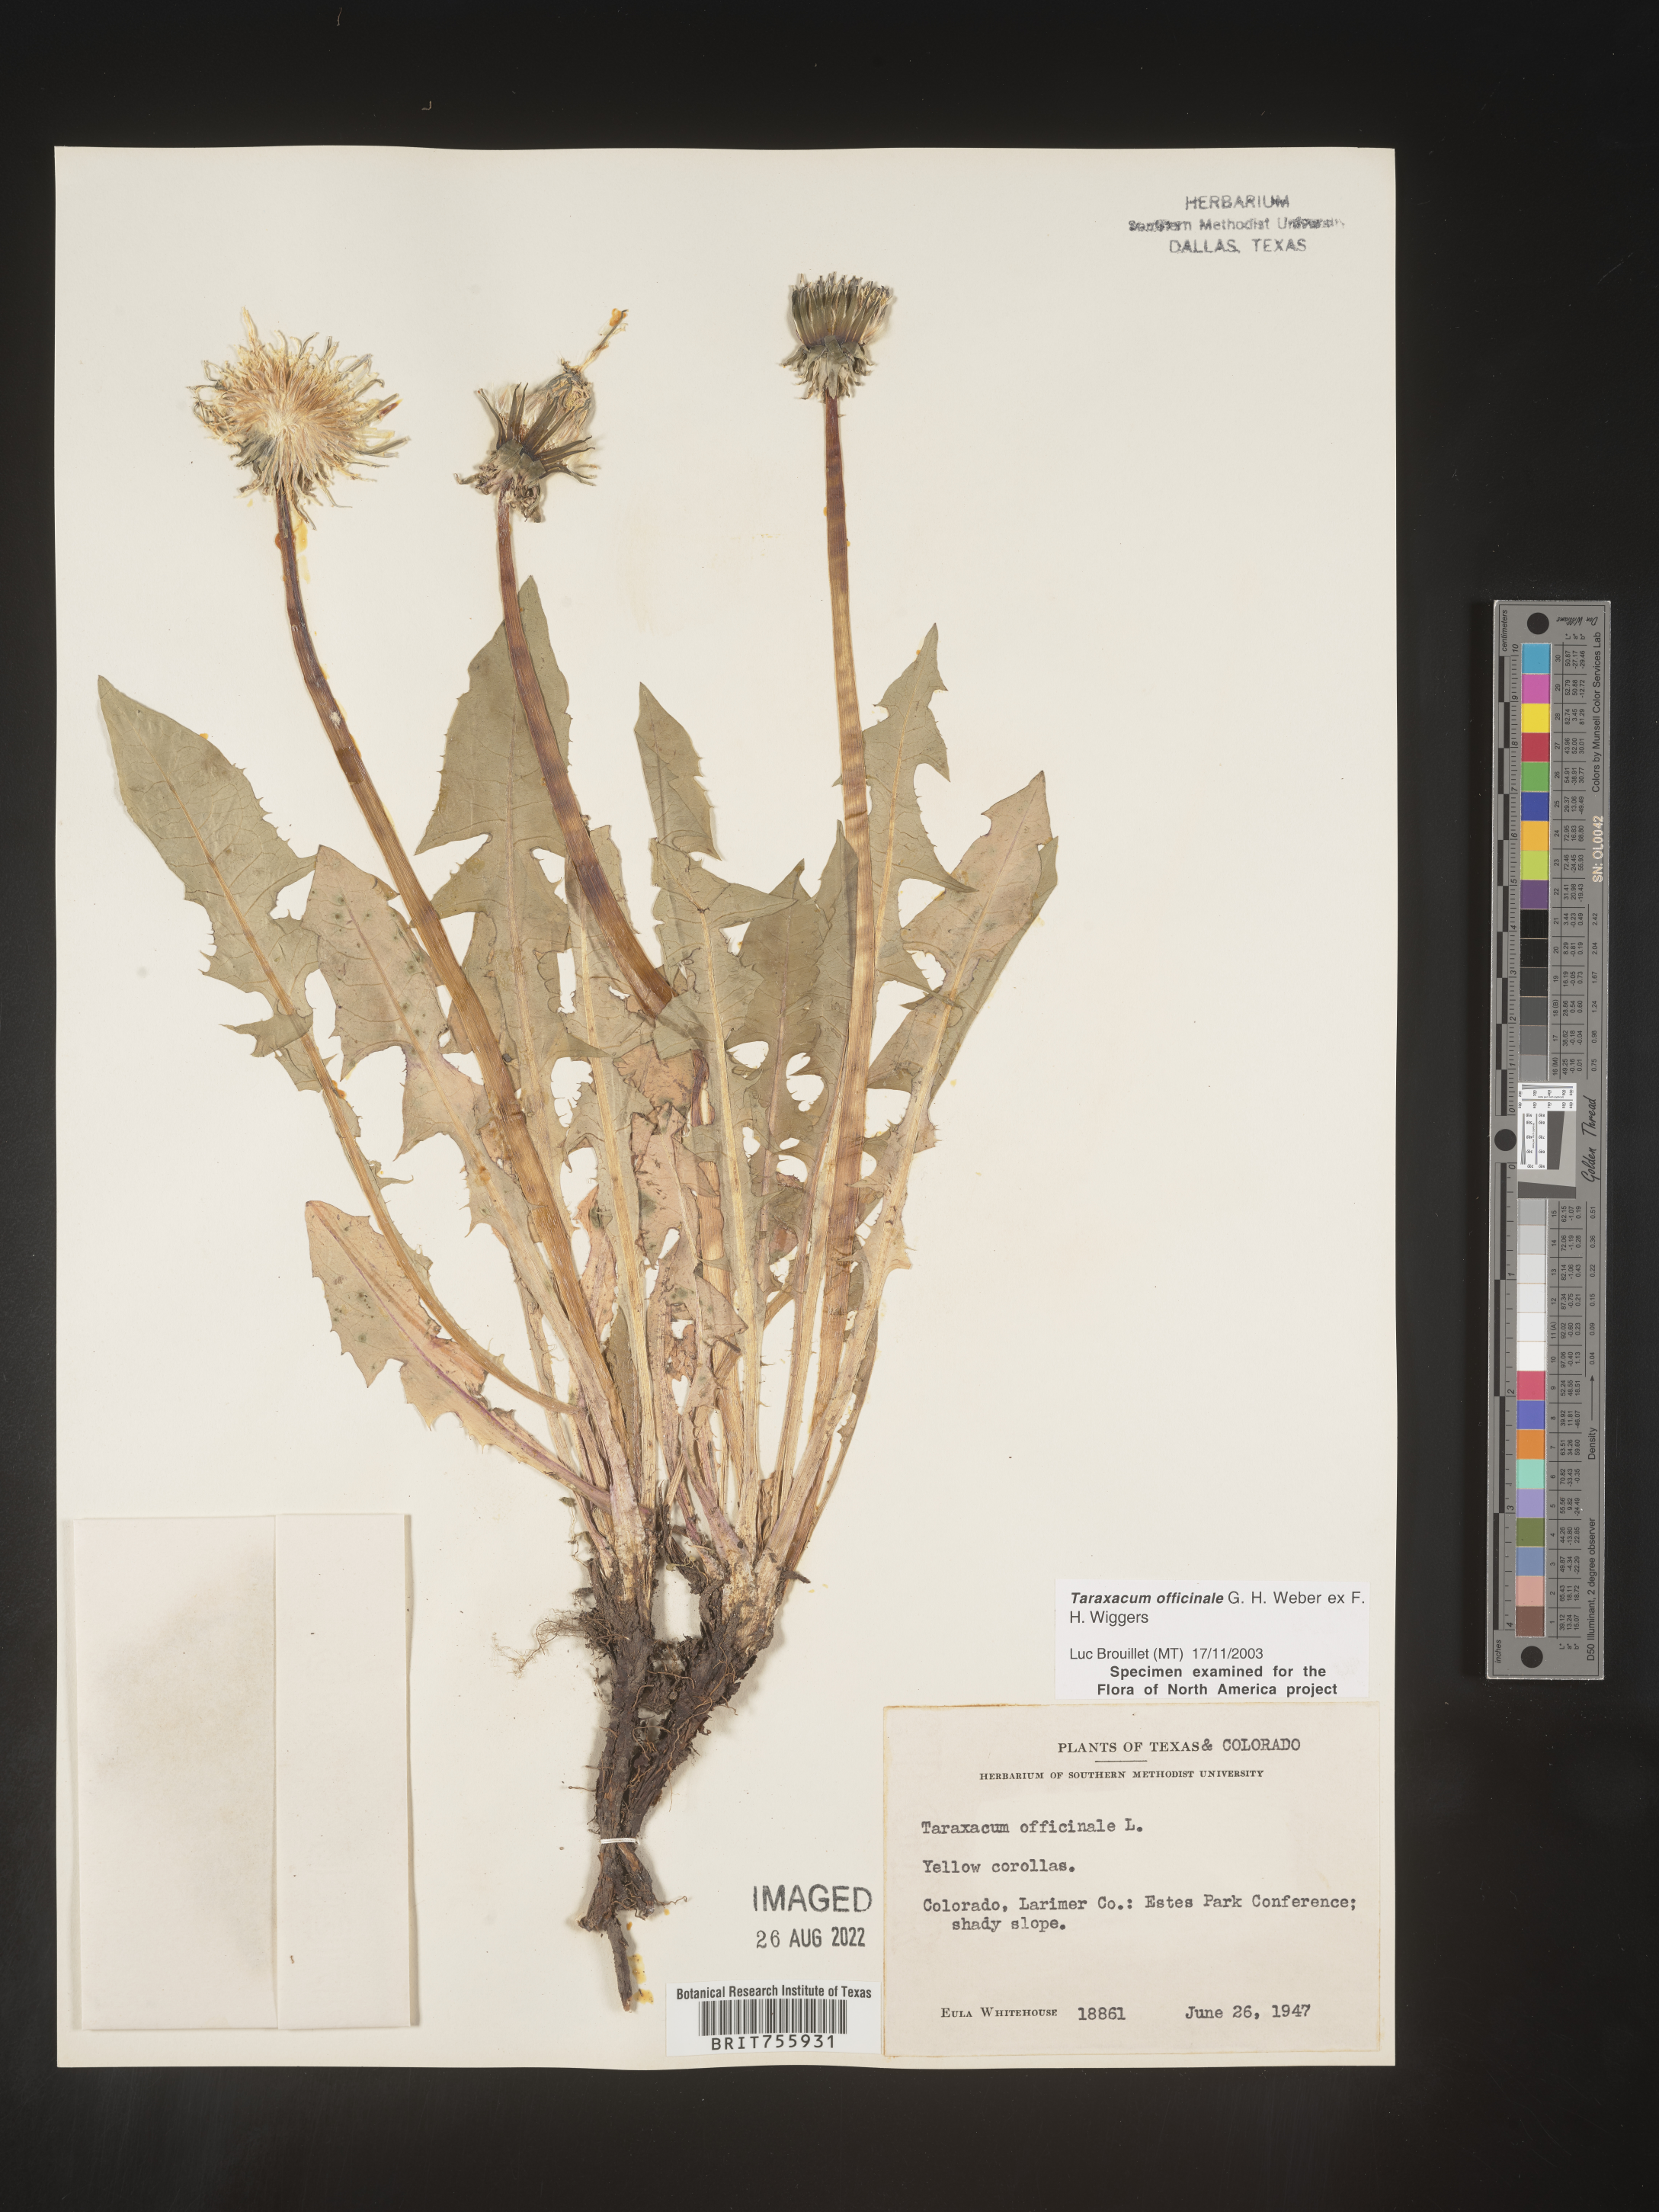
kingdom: Plantae
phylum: Tracheophyta
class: Magnoliopsida
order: Asterales
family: Asteraceae
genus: Taraxacum
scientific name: Taraxacum officinale
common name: Common dandelion
